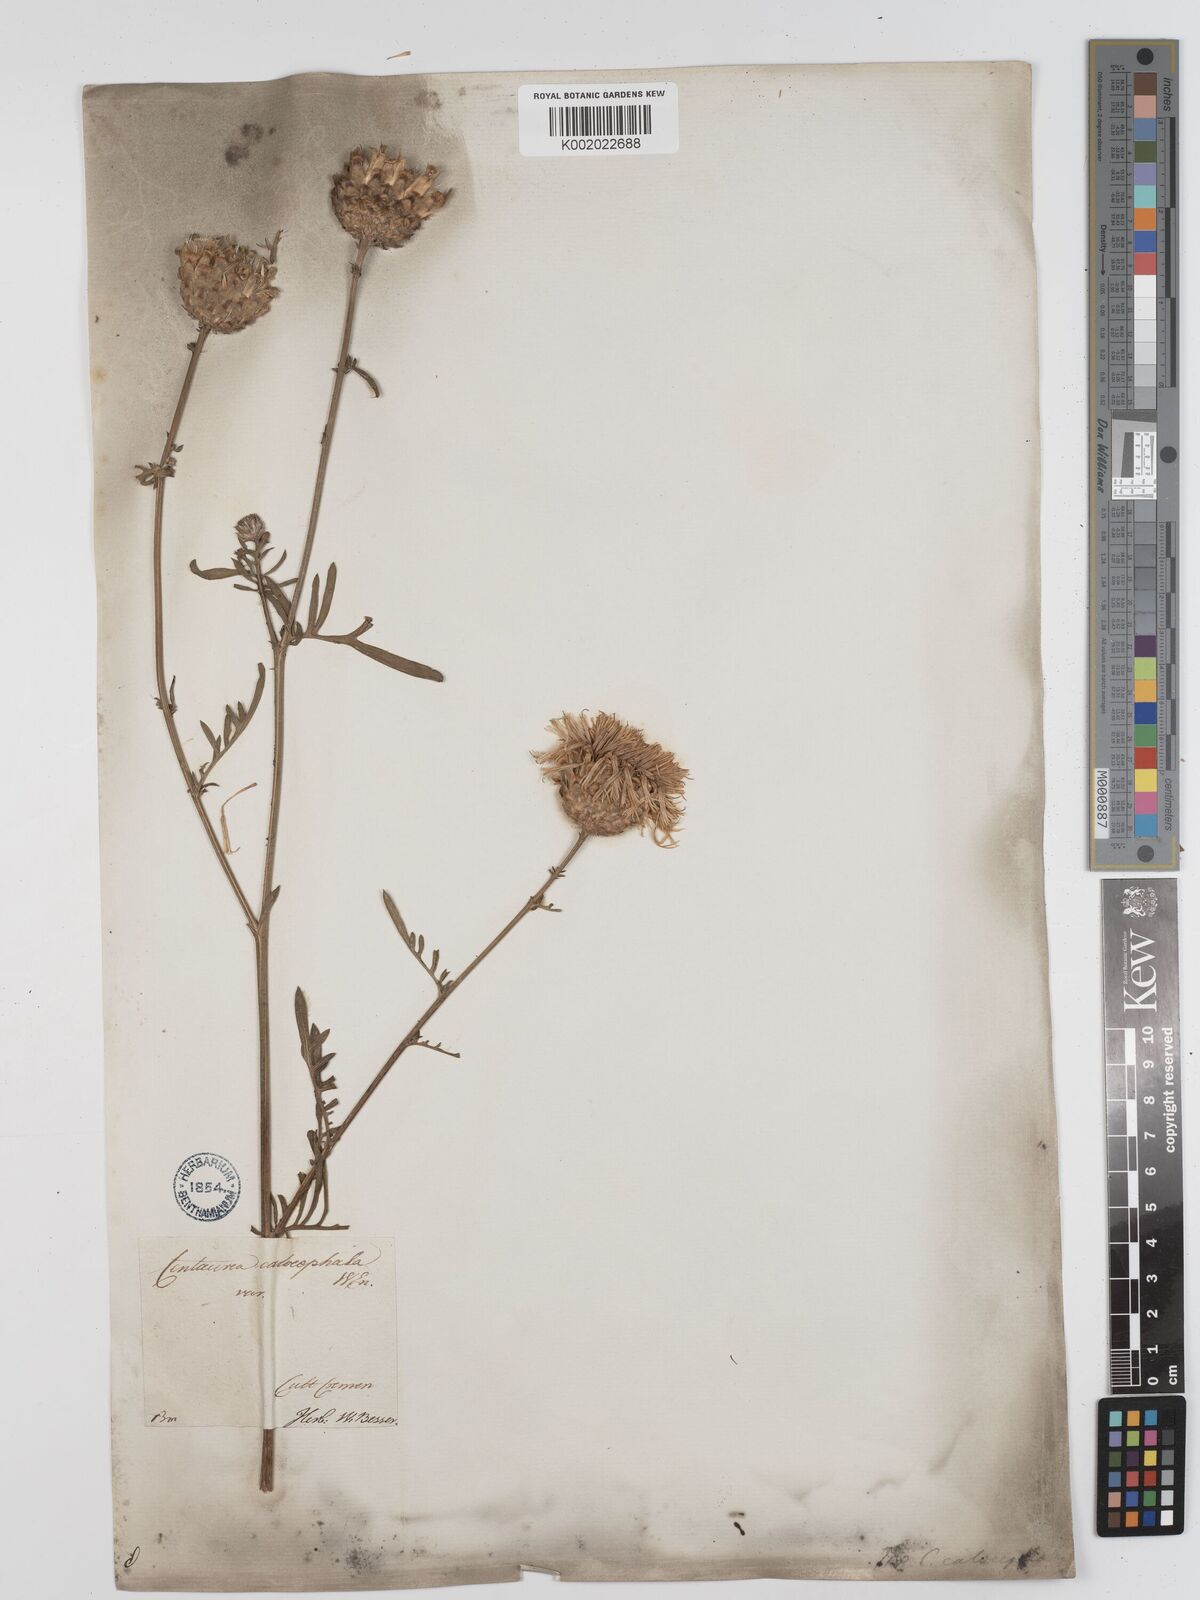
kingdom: Plantae
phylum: Tracheophyta
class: Magnoliopsida
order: Asterales
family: Asteraceae
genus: Centaurea
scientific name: Centaurea calocephala
